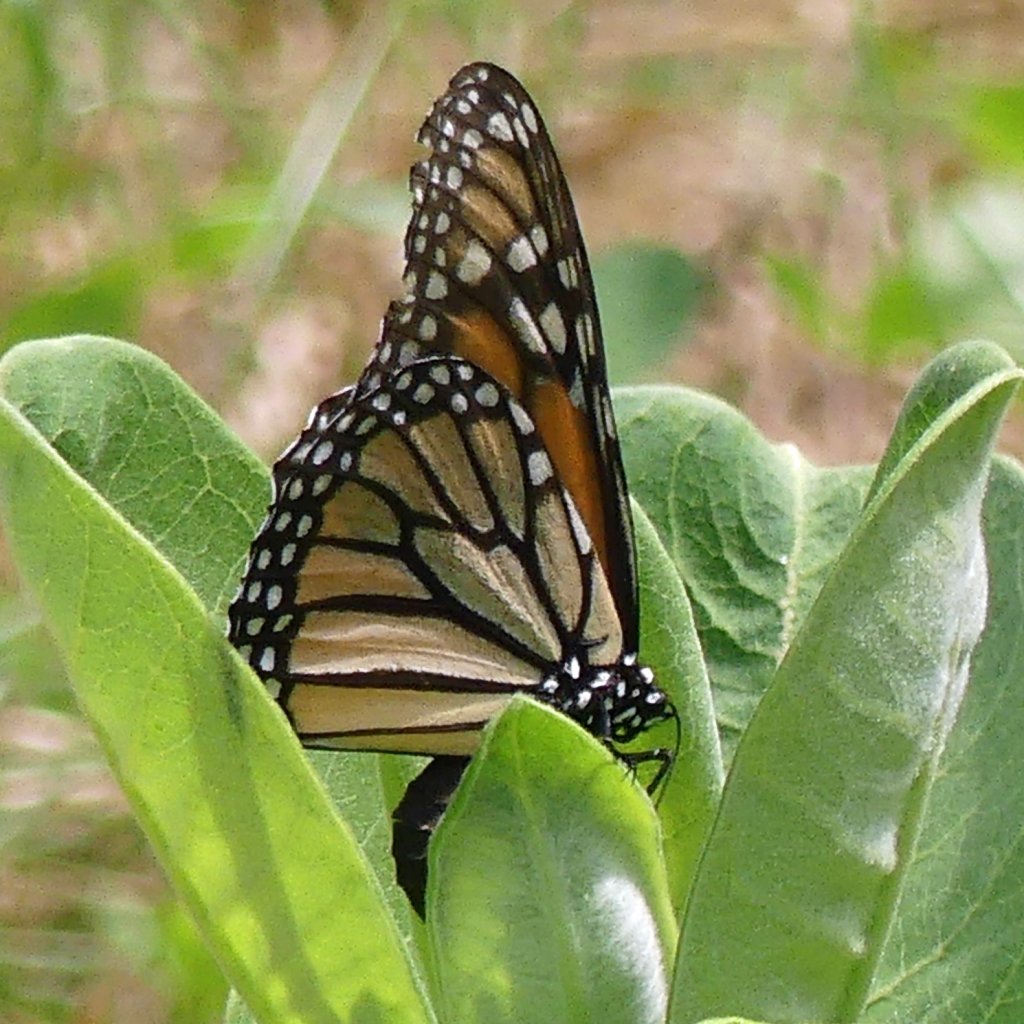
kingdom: Animalia
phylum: Arthropoda
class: Insecta
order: Lepidoptera
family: Nymphalidae
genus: Danaus
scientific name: Danaus plexippus
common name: Monarch
